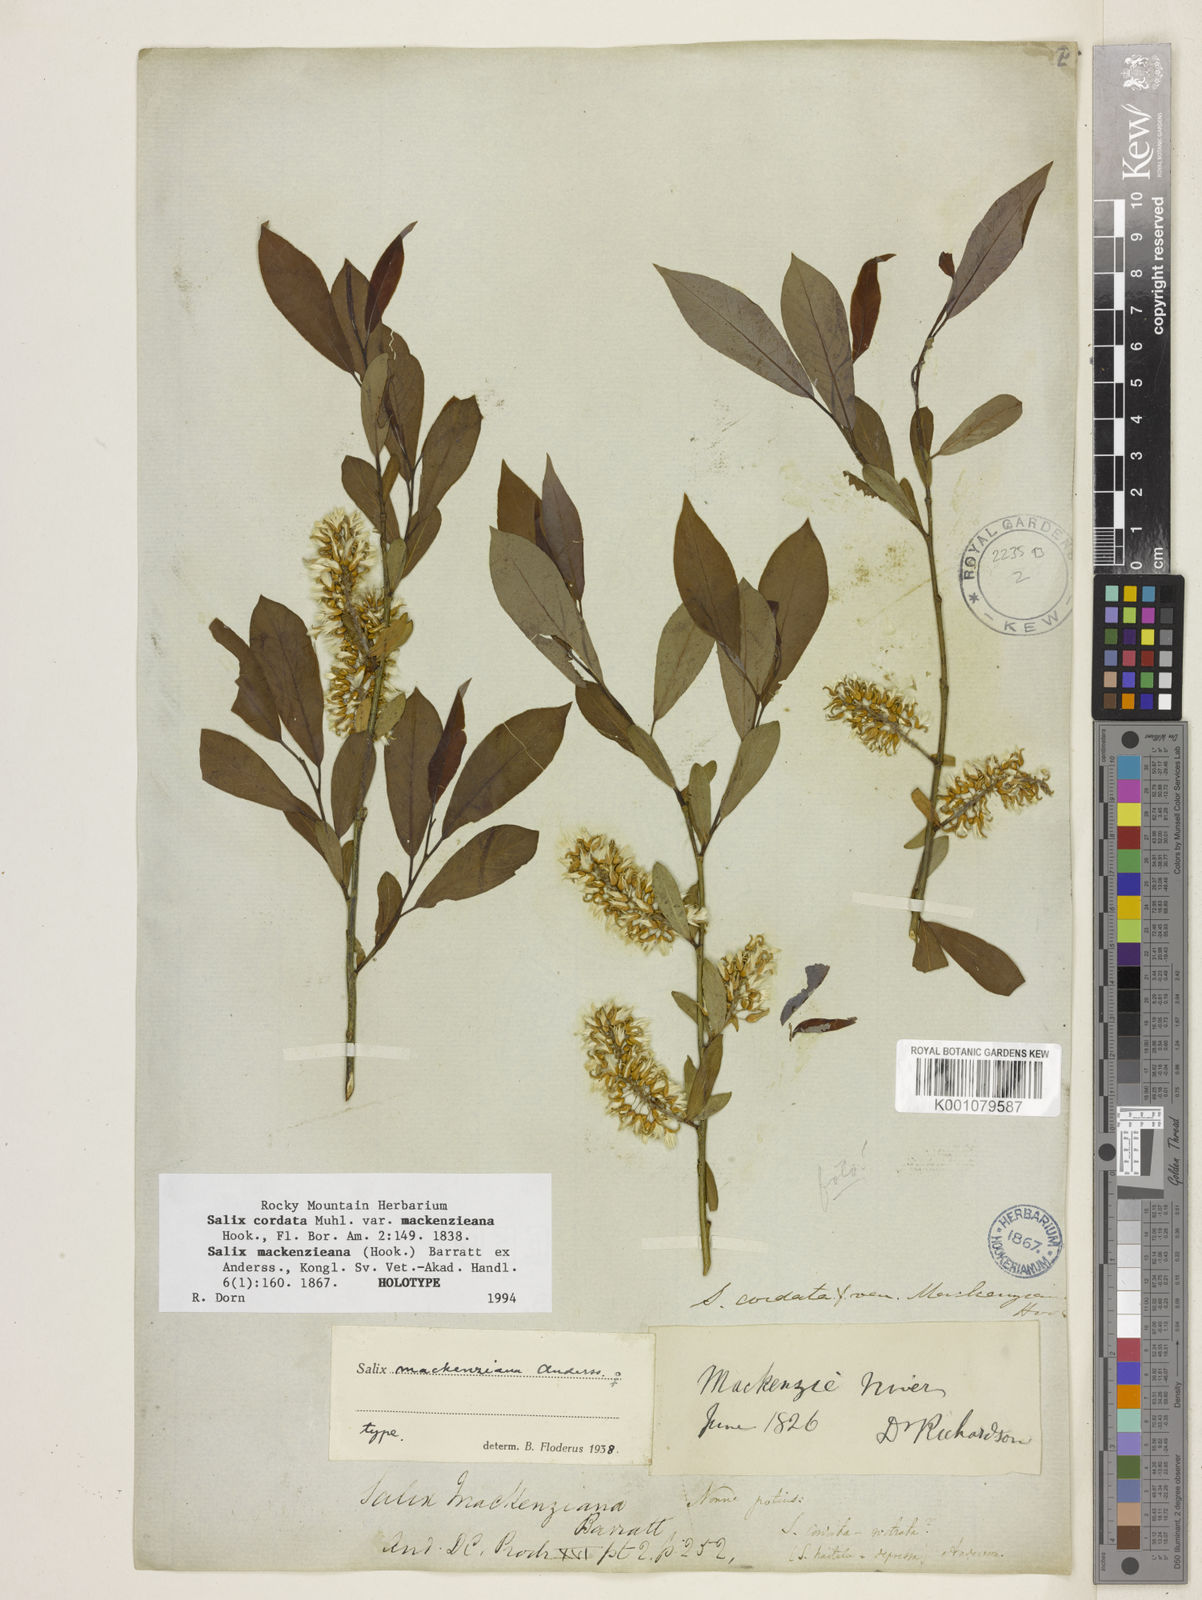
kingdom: Plantae
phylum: Tracheophyta
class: Magnoliopsida
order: Malpighiales
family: Salicaceae
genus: Salix
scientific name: Salix prolixa
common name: Mackenzie's willow
